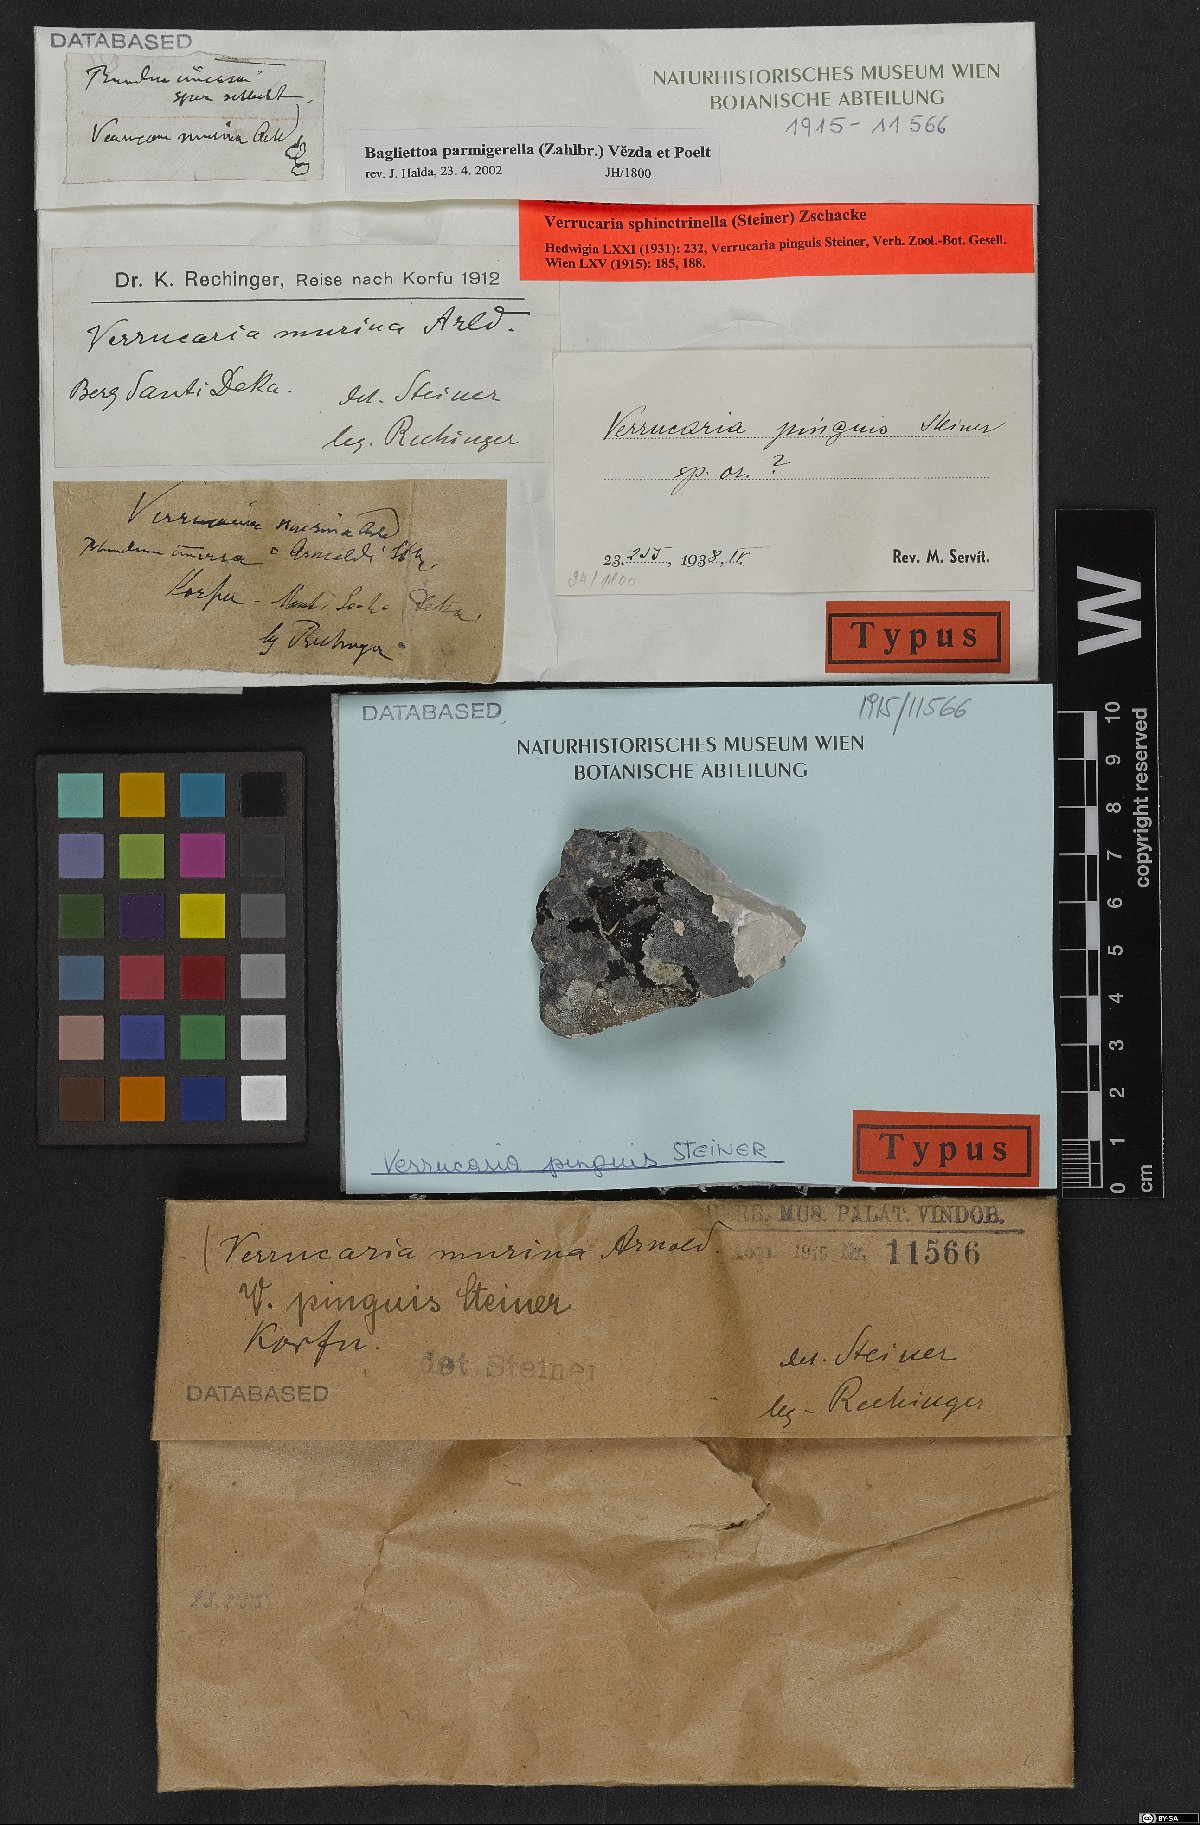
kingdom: Fungi
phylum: Ascomycota
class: Eurotiomycetes
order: Verrucariales
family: Verrucariaceae
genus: Bagliettoa
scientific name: Bagliettoa parmigerella
